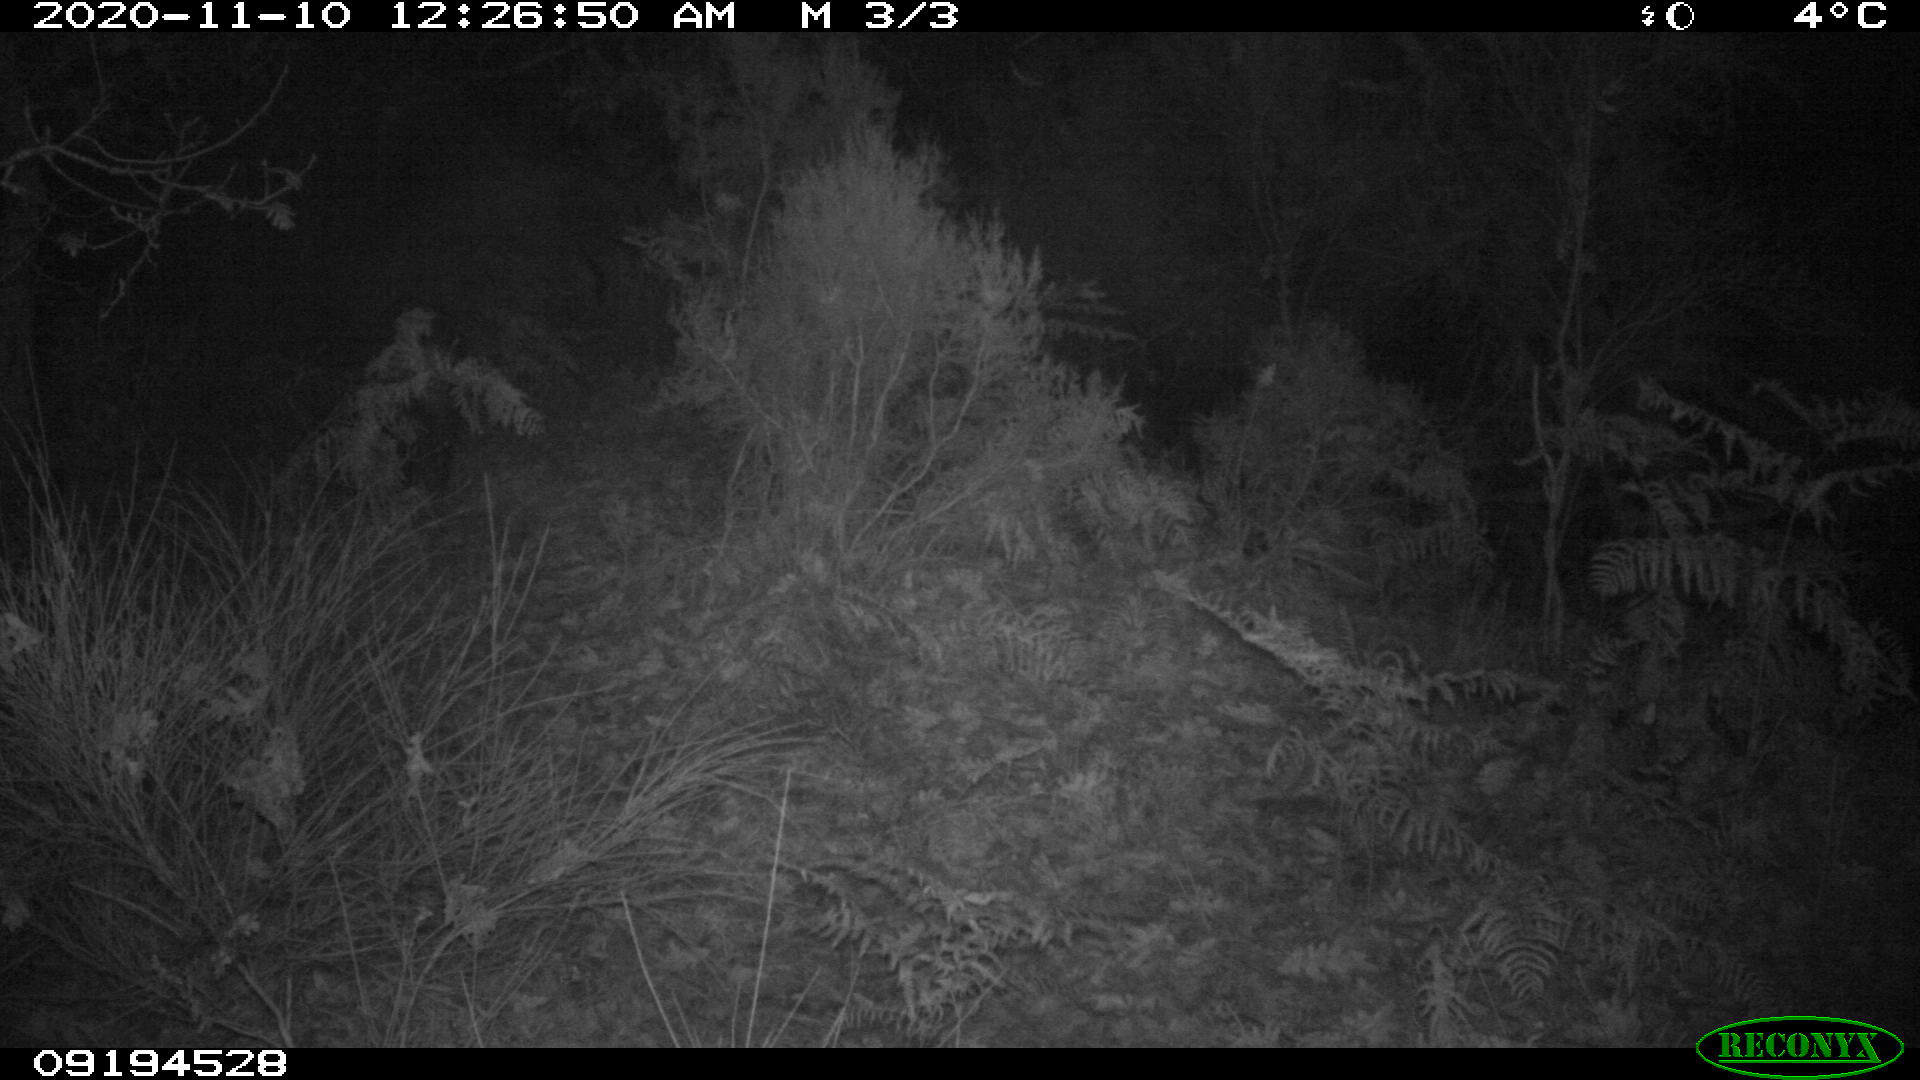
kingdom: Animalia
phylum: Chordata
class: Mammalia
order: Artiodactyla
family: Suidae
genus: Sus
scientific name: Sus scrofa
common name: Wild boar
